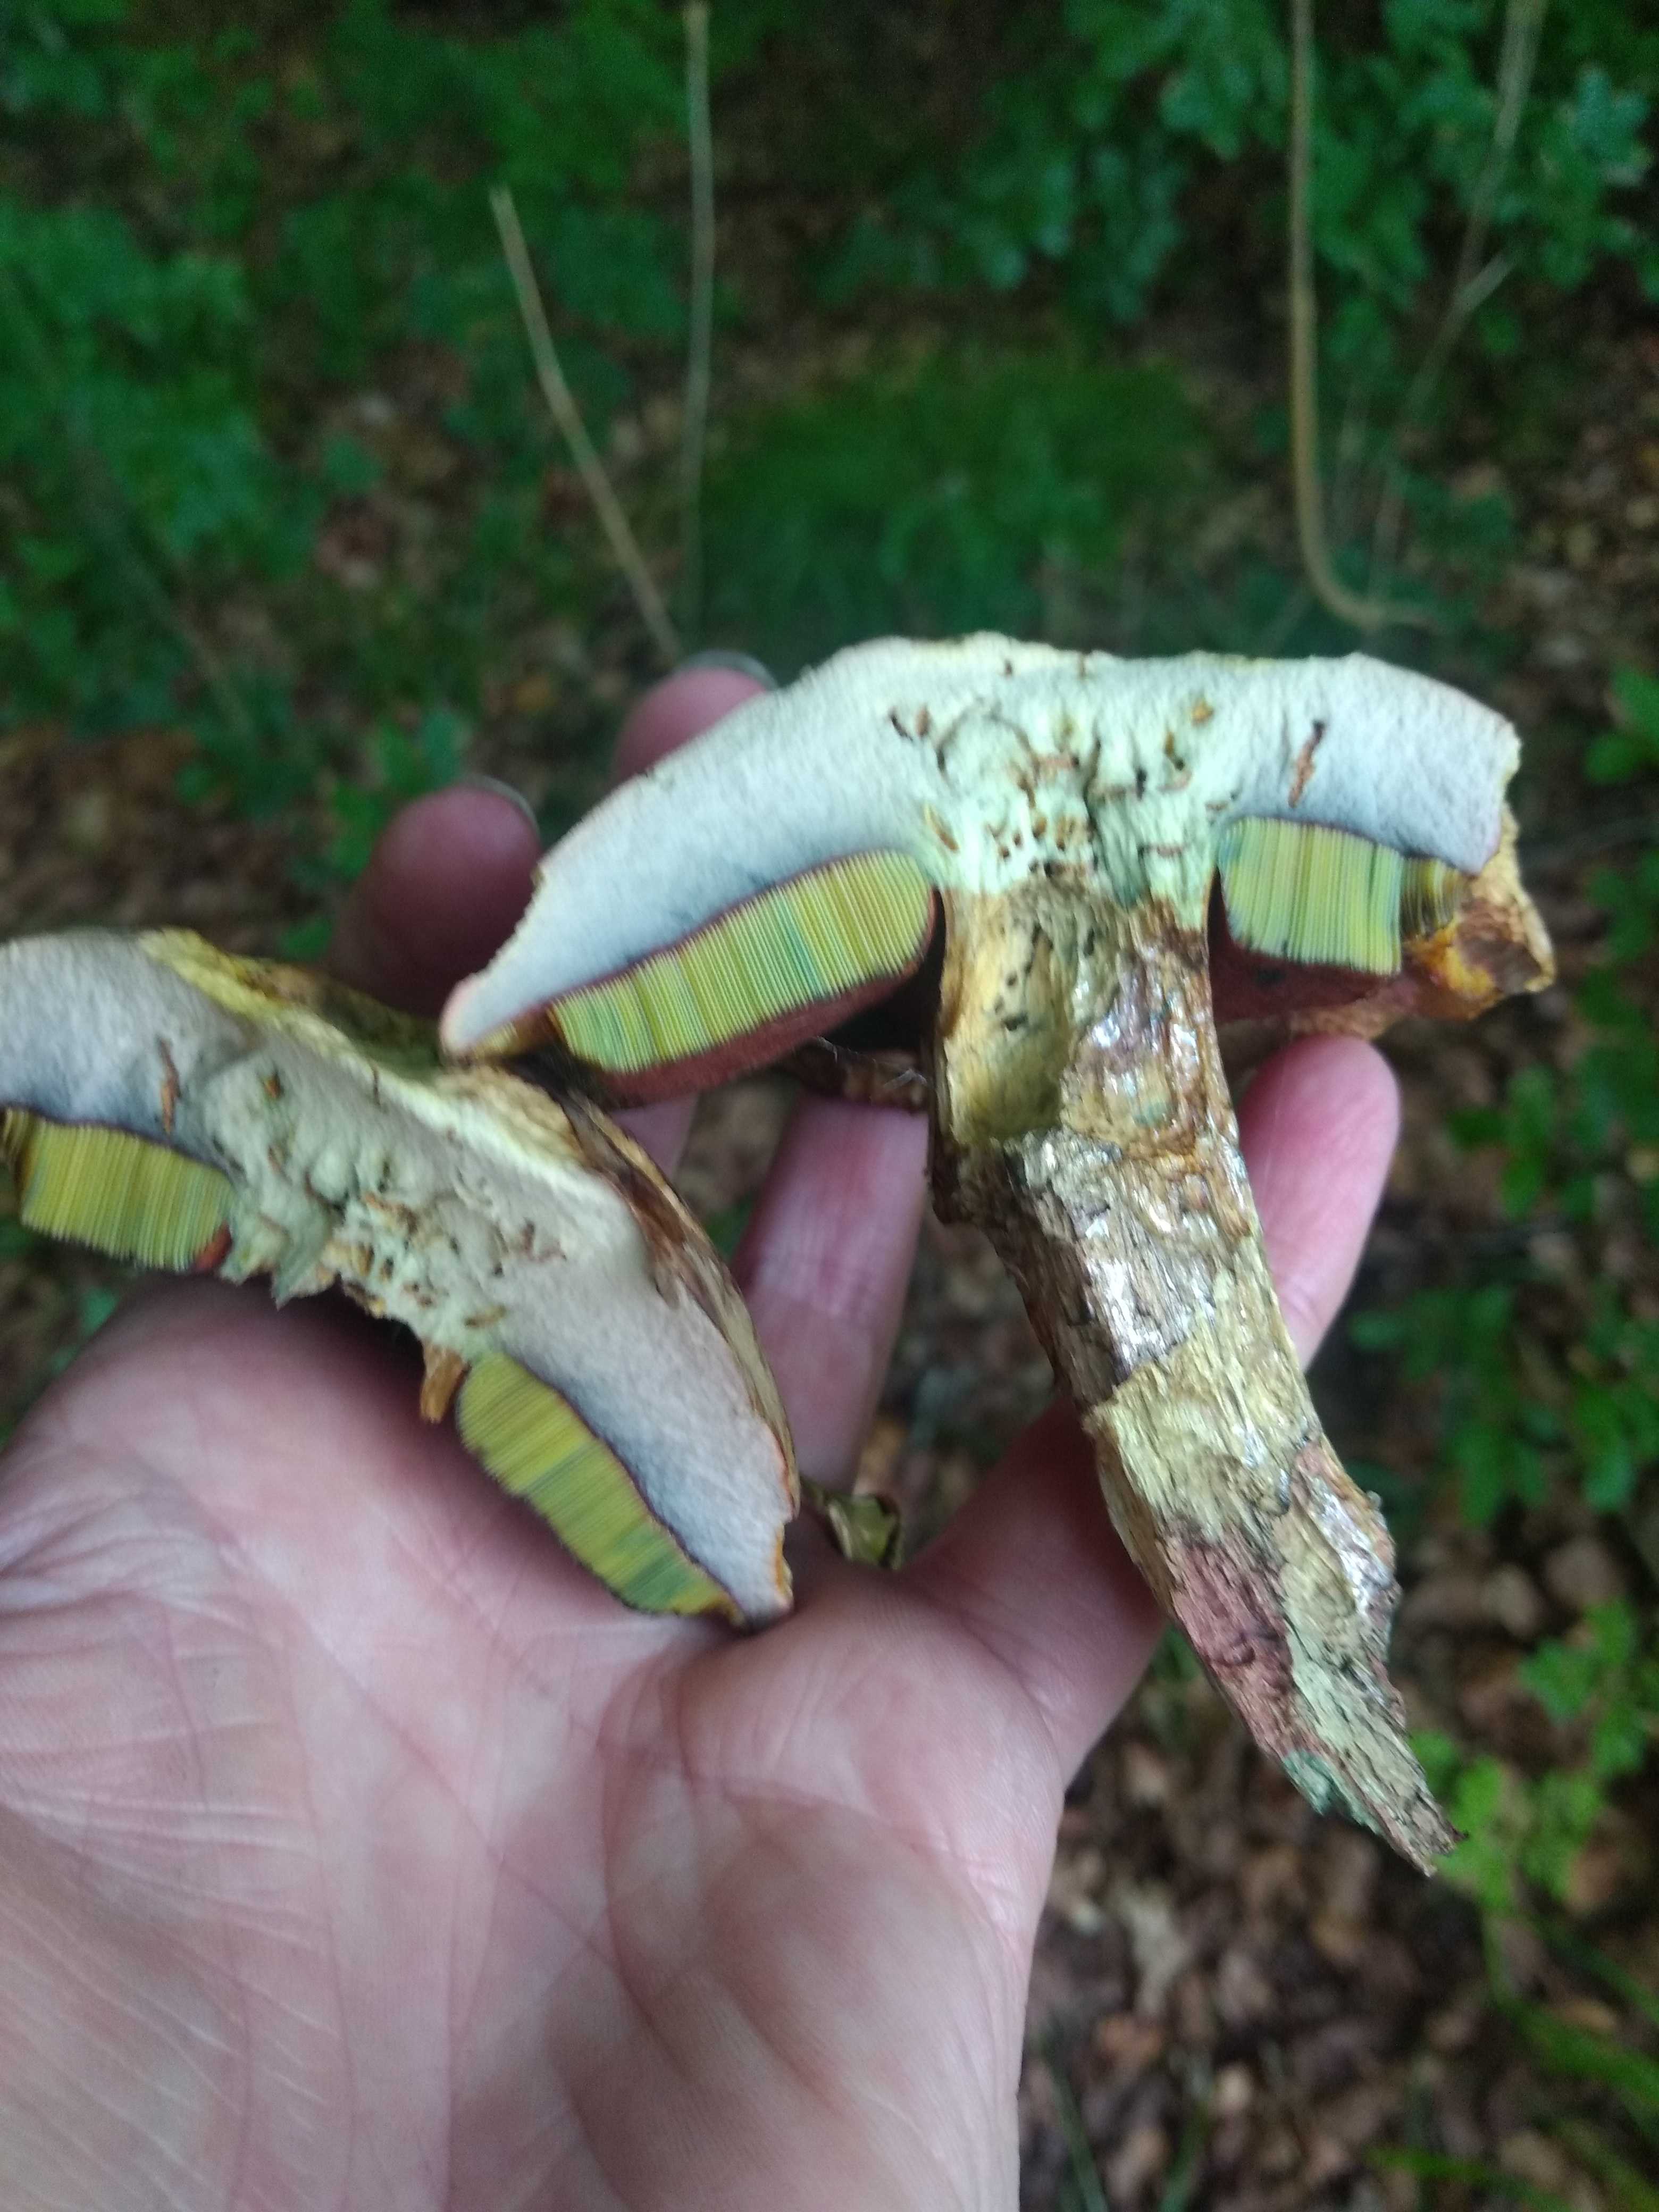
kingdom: Fungi
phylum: Basidiomycota
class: Agaricomycetes
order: Boletales
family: Boletaceae
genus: Suillellus
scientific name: Suillellus luridus
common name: netstokket indigorørhat
